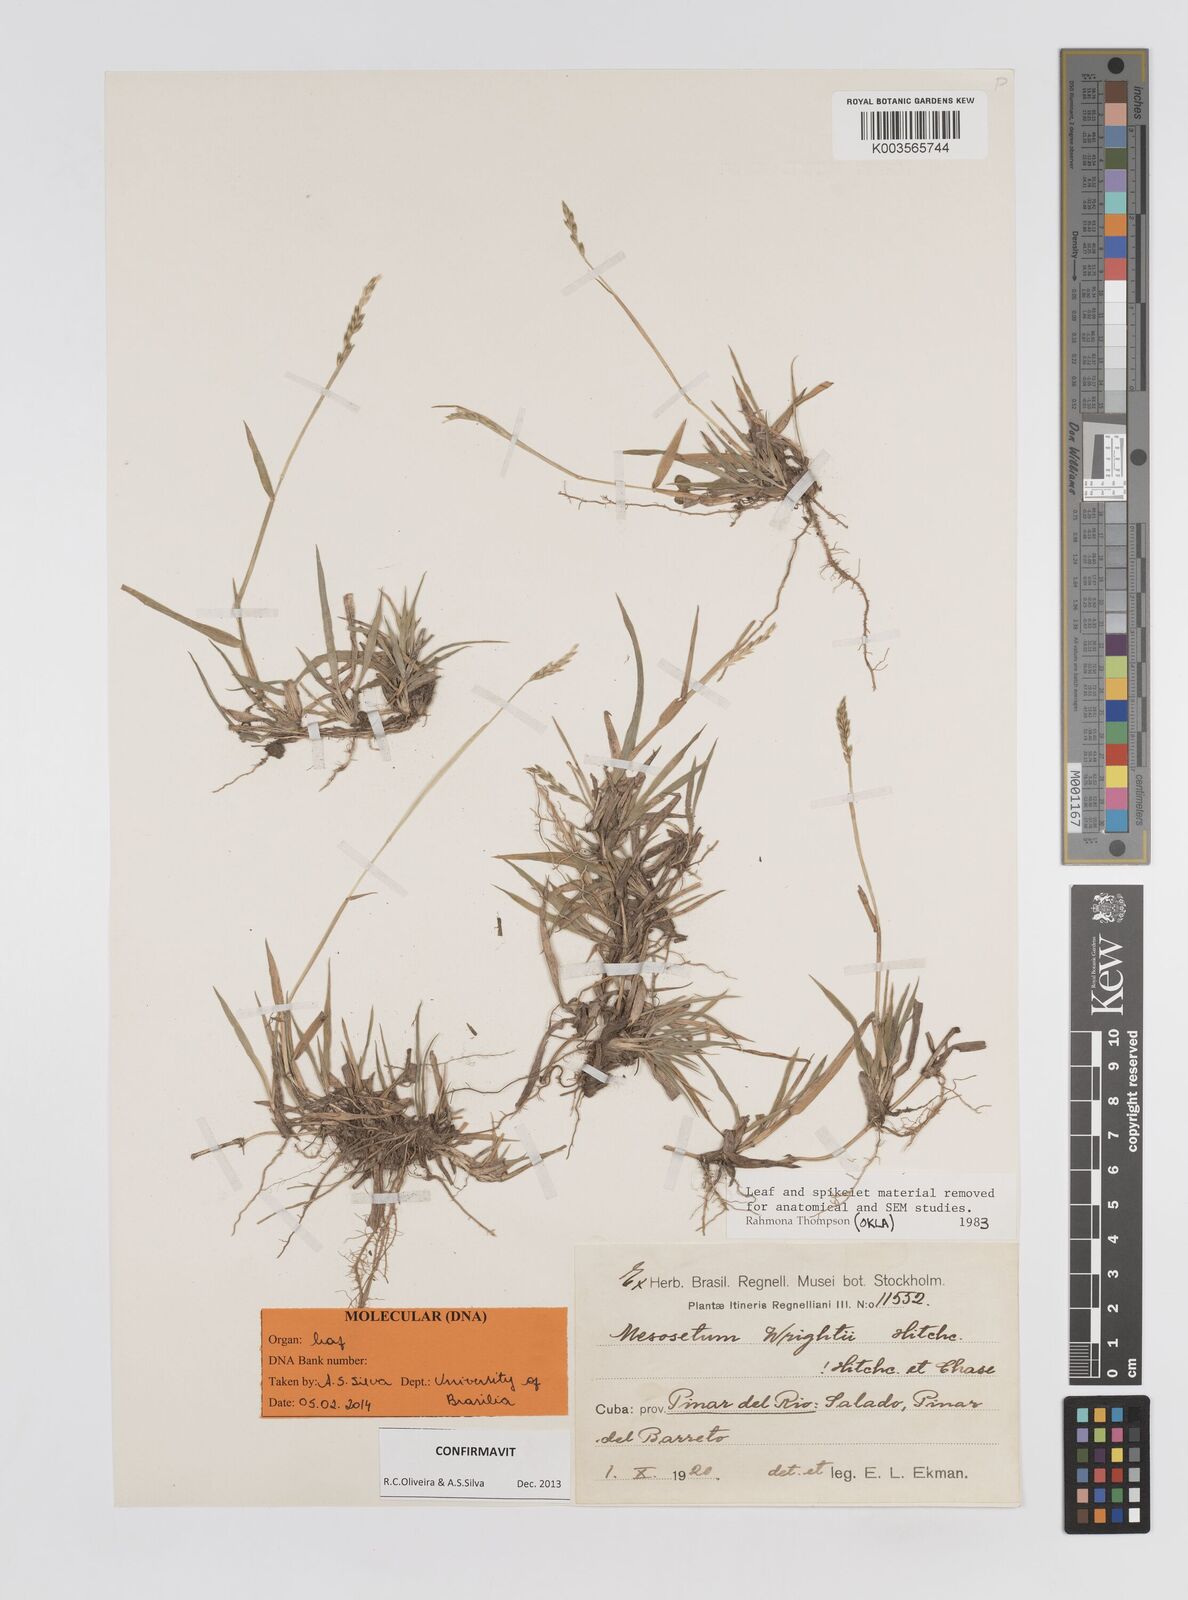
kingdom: Plantae
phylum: Tracheophyta
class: Liliopsida
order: Poales
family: Poaceae
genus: Mesosetum
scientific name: Mesosetum wrightii
